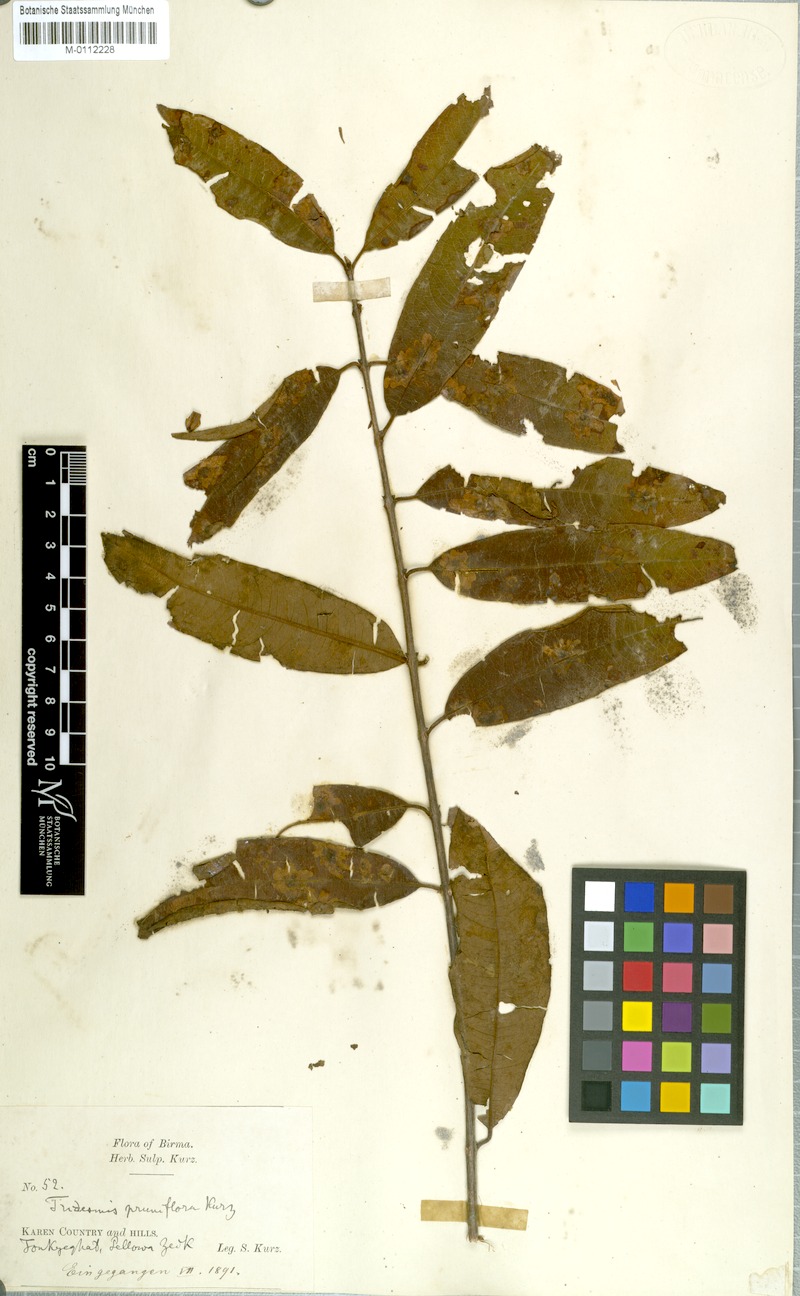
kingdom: Plantae
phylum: Tracheophyta
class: Magnoliopsida
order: Malpighiales
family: Hypericaceae
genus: Cratoxylum
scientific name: Cratoxylum formosum
